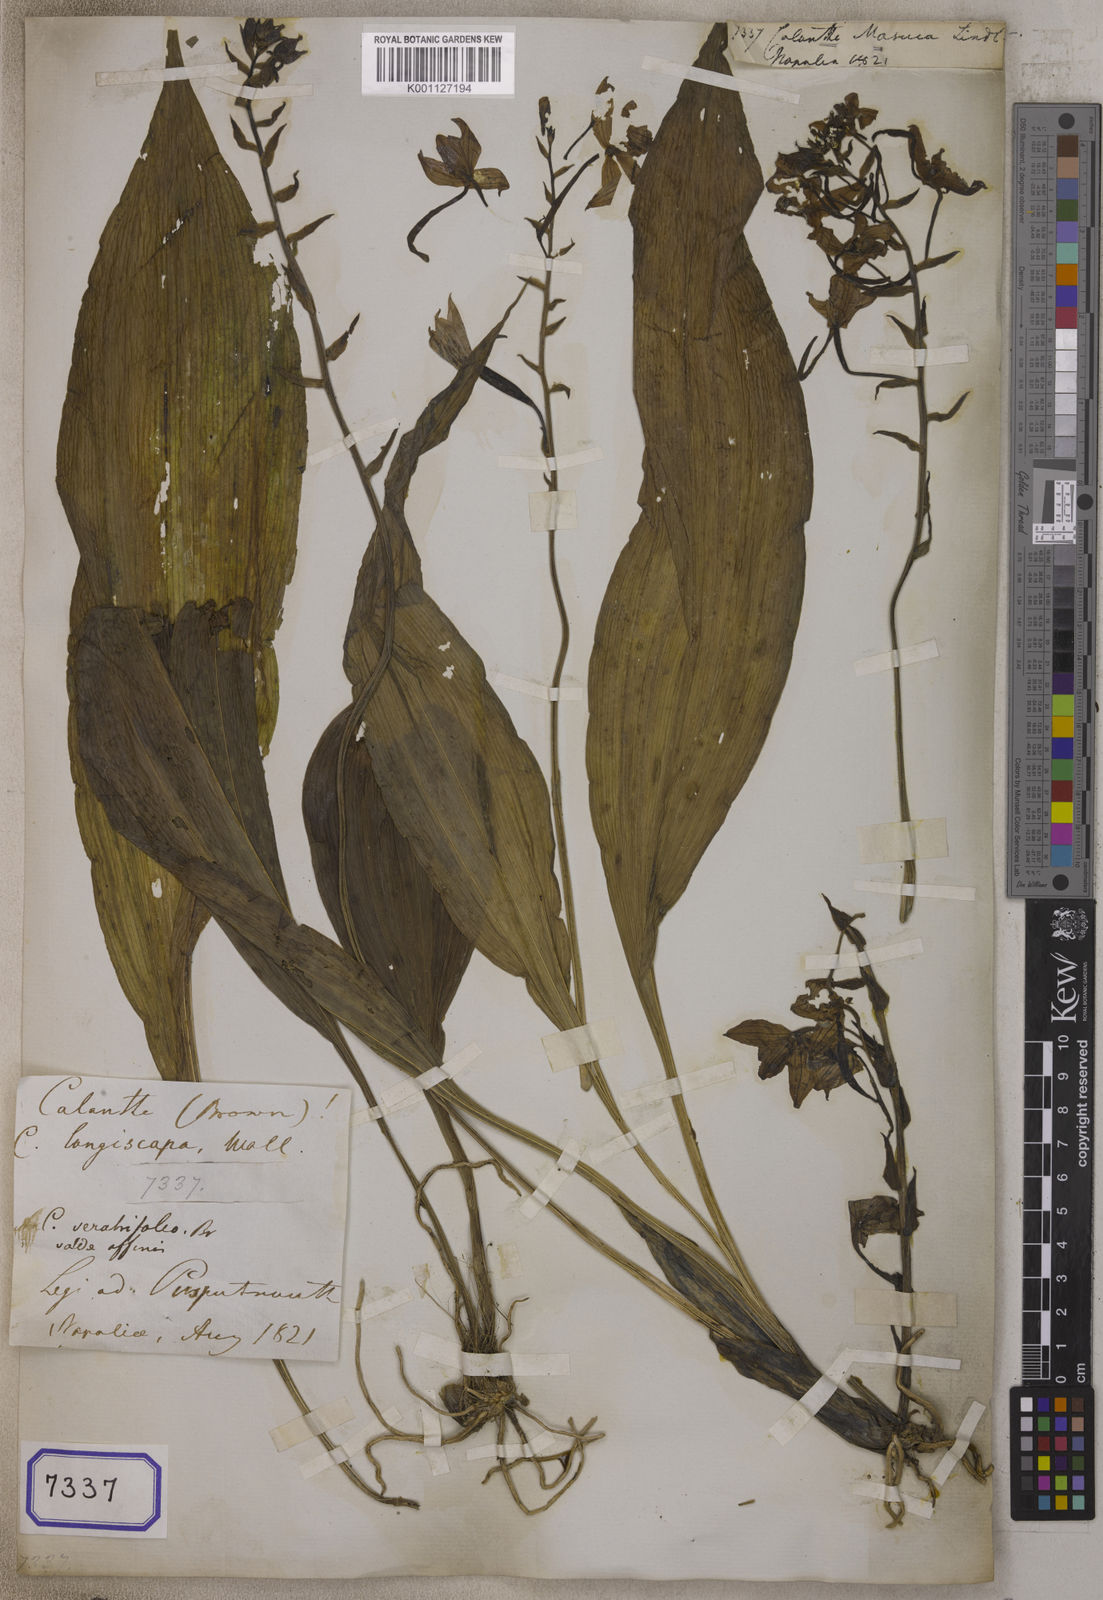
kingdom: Plantae
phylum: Tracheophyta
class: Liliopsida
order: Asparagales
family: Orchidaceae
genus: Calanthe
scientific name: Calanthe masuca
